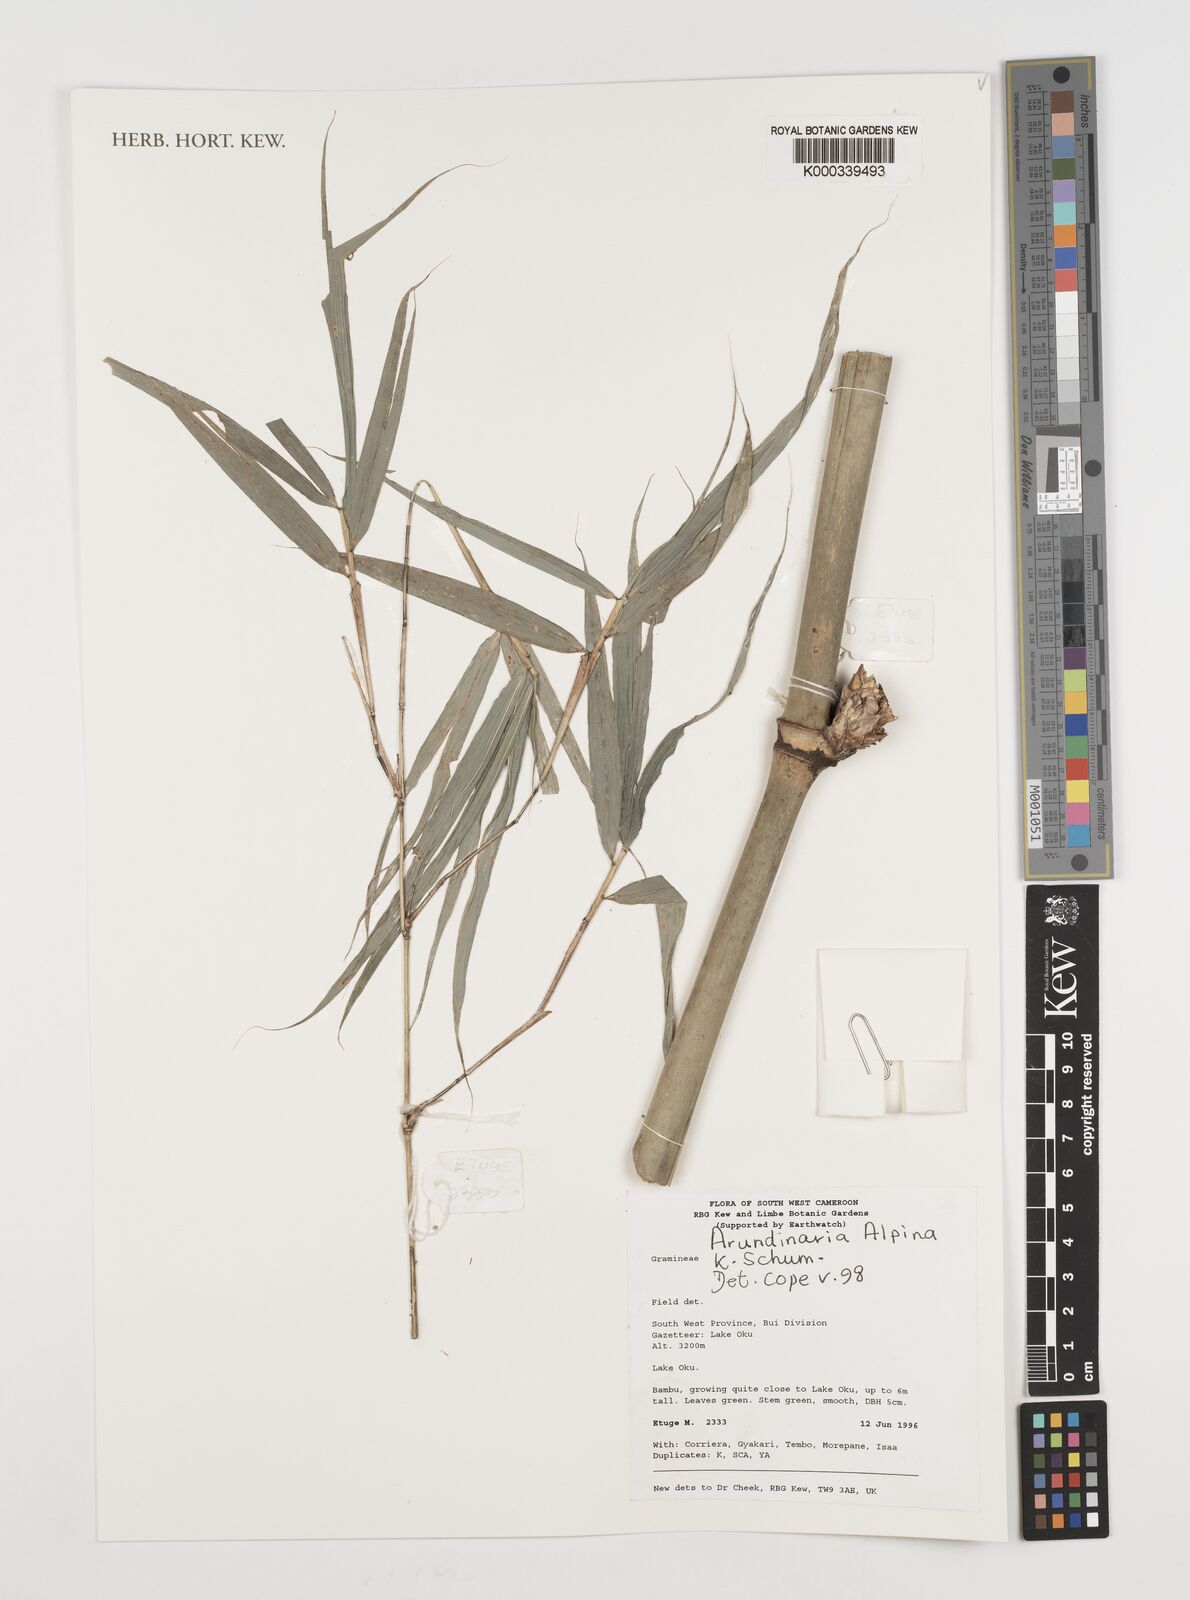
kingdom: Plantae
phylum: Tracheophyta
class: Liliopsida
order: Poales
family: Poaceae
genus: Oldeania
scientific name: Oldeania alpina
